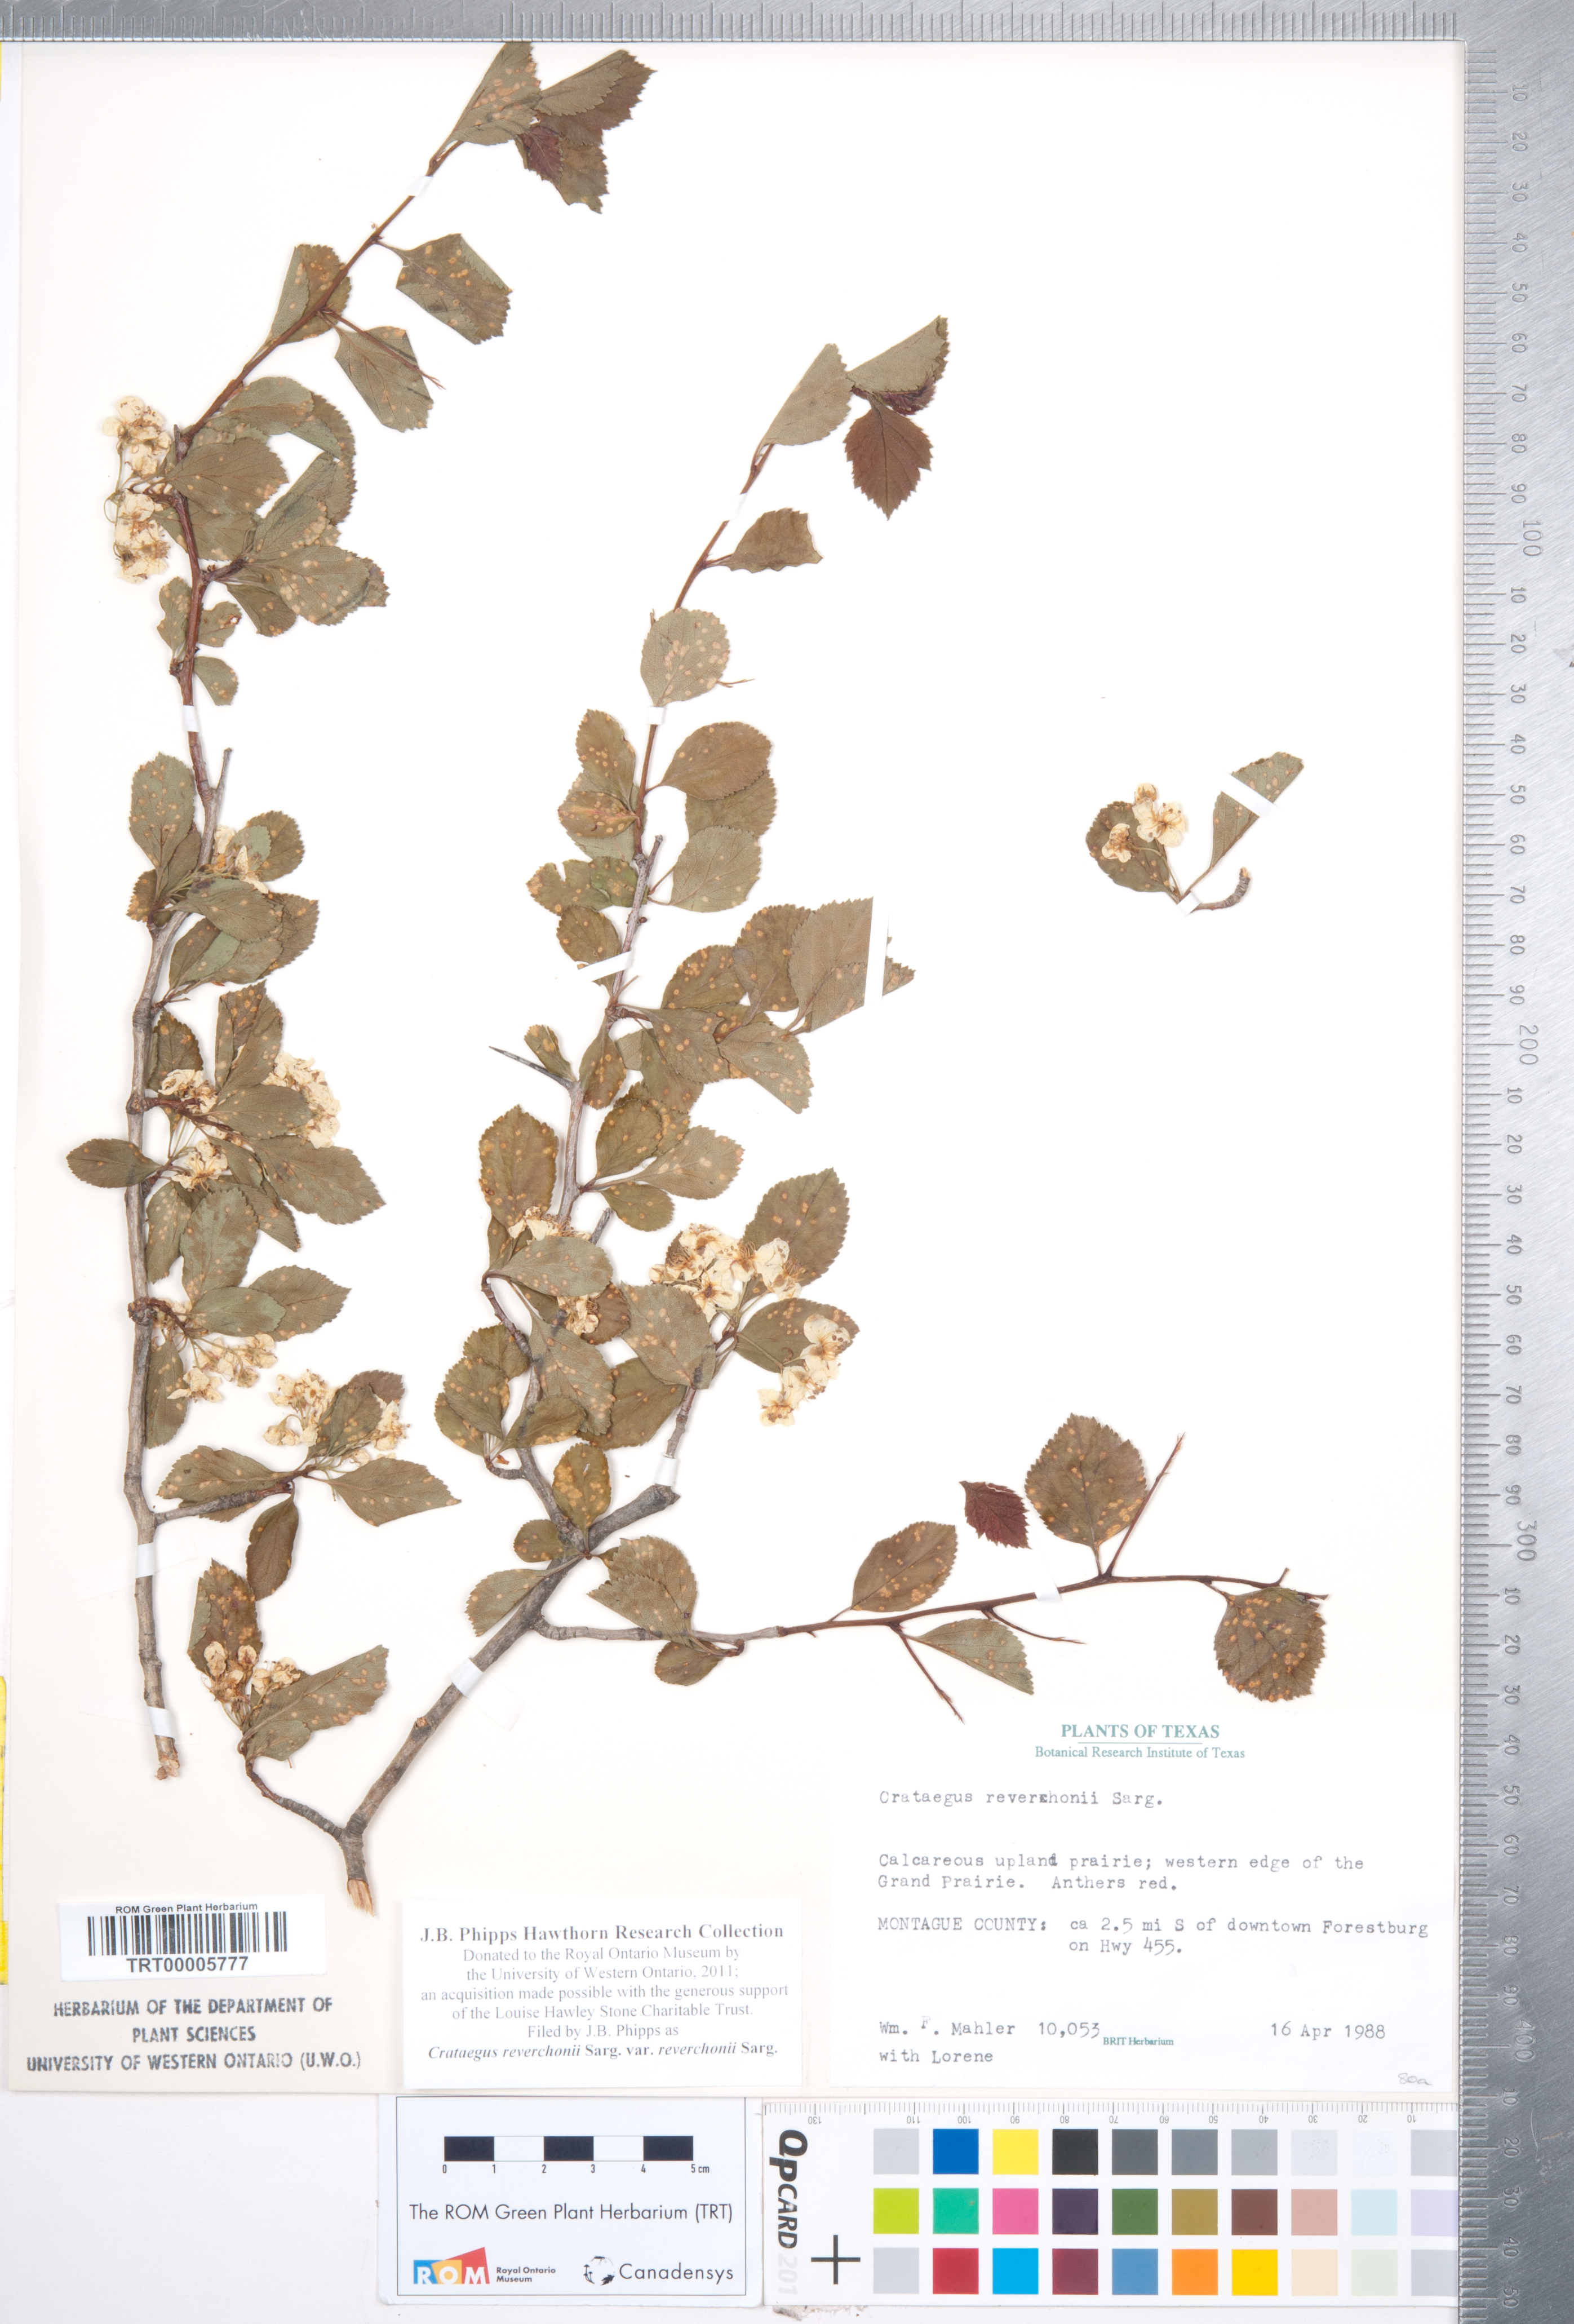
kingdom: Plantae
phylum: Tracheophyta
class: Magnoliopsida
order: Rosales
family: Rosaceae
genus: Crataegus
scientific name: Crataegus reverchonii
